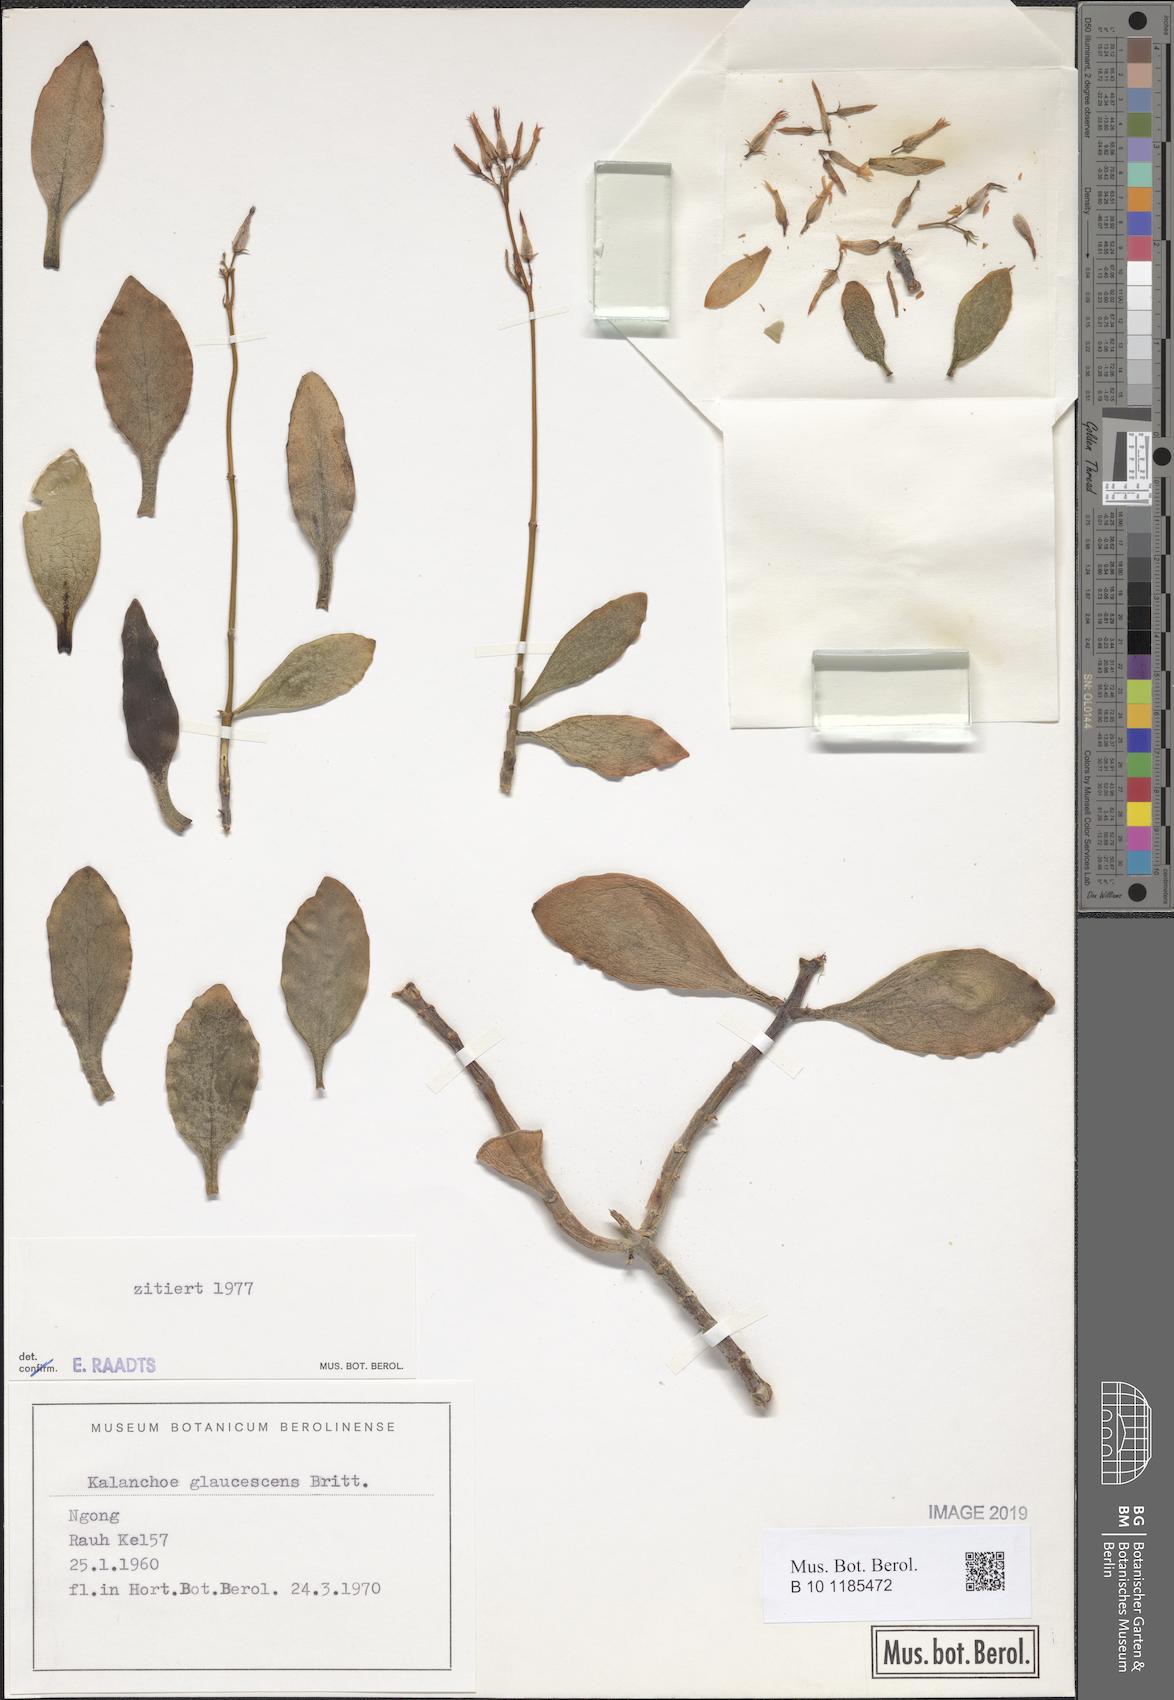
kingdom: Plantae
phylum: Tracheophyta
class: Magnoliopsida
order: Saxifragales
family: Crassulaceae
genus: Kalanchoe
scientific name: Kalanchoe glaucescens
